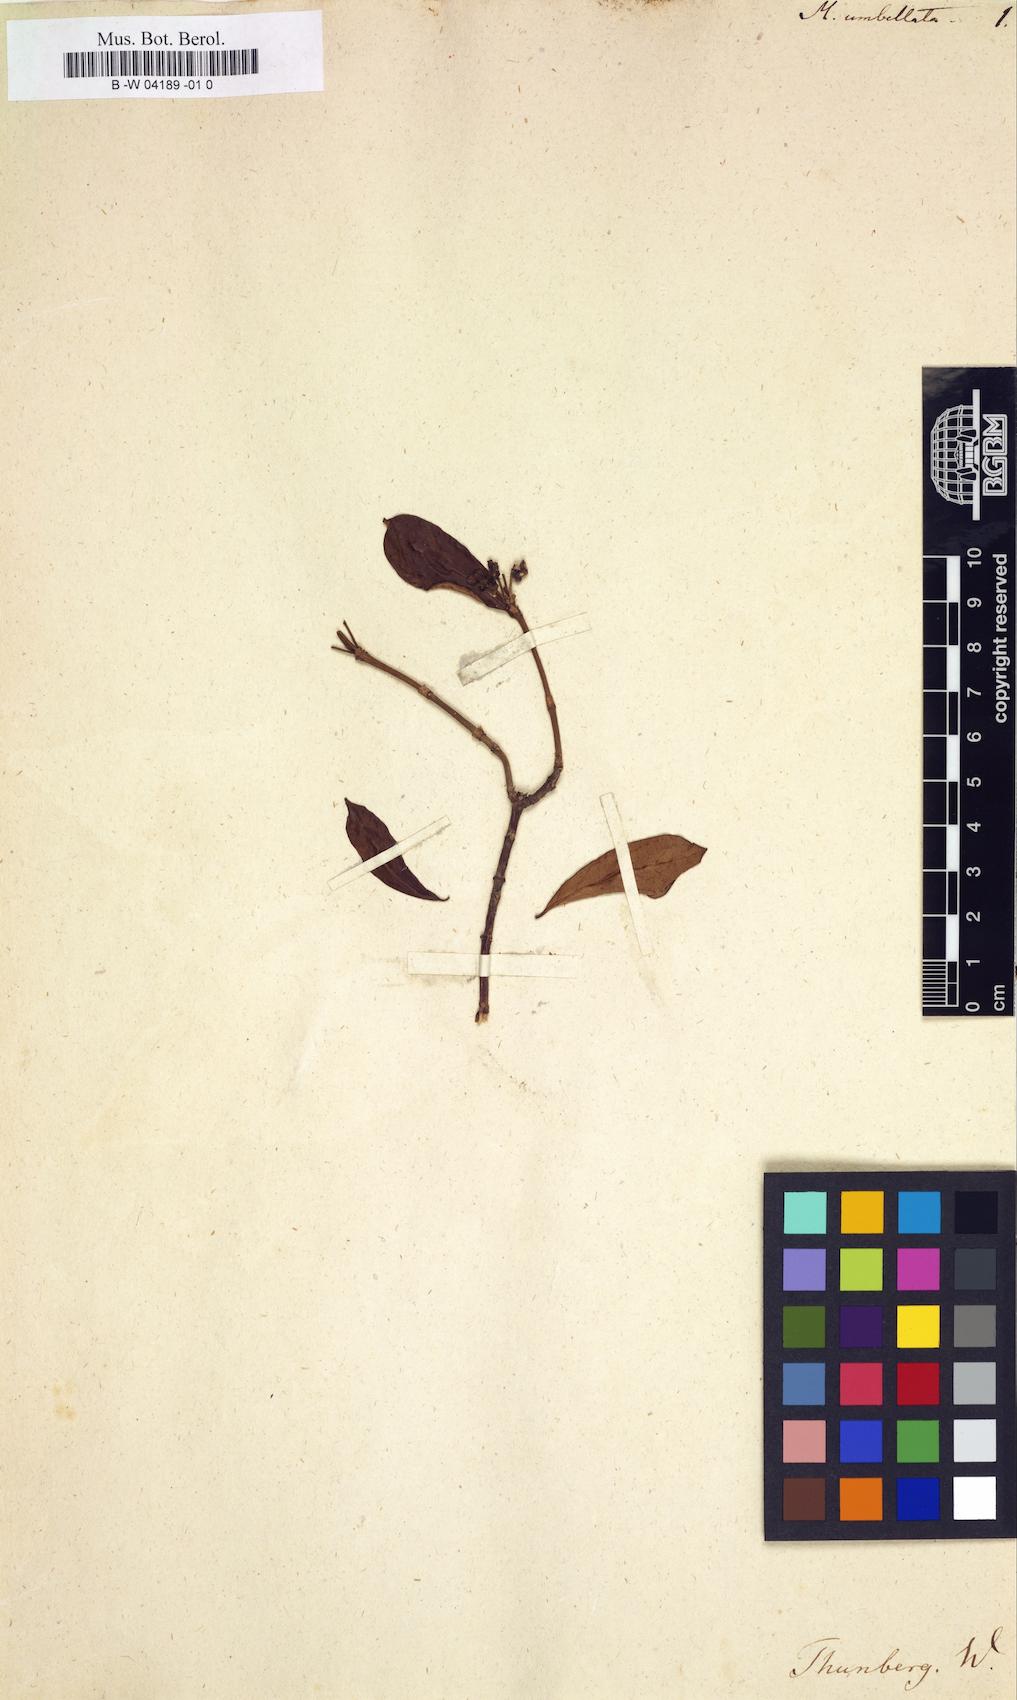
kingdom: Plantae
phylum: Tracheophyta
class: Magnoliopsida
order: Gentianales
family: Rubiaceae
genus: Gynochthodes
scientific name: Gynochthodes umbellata
